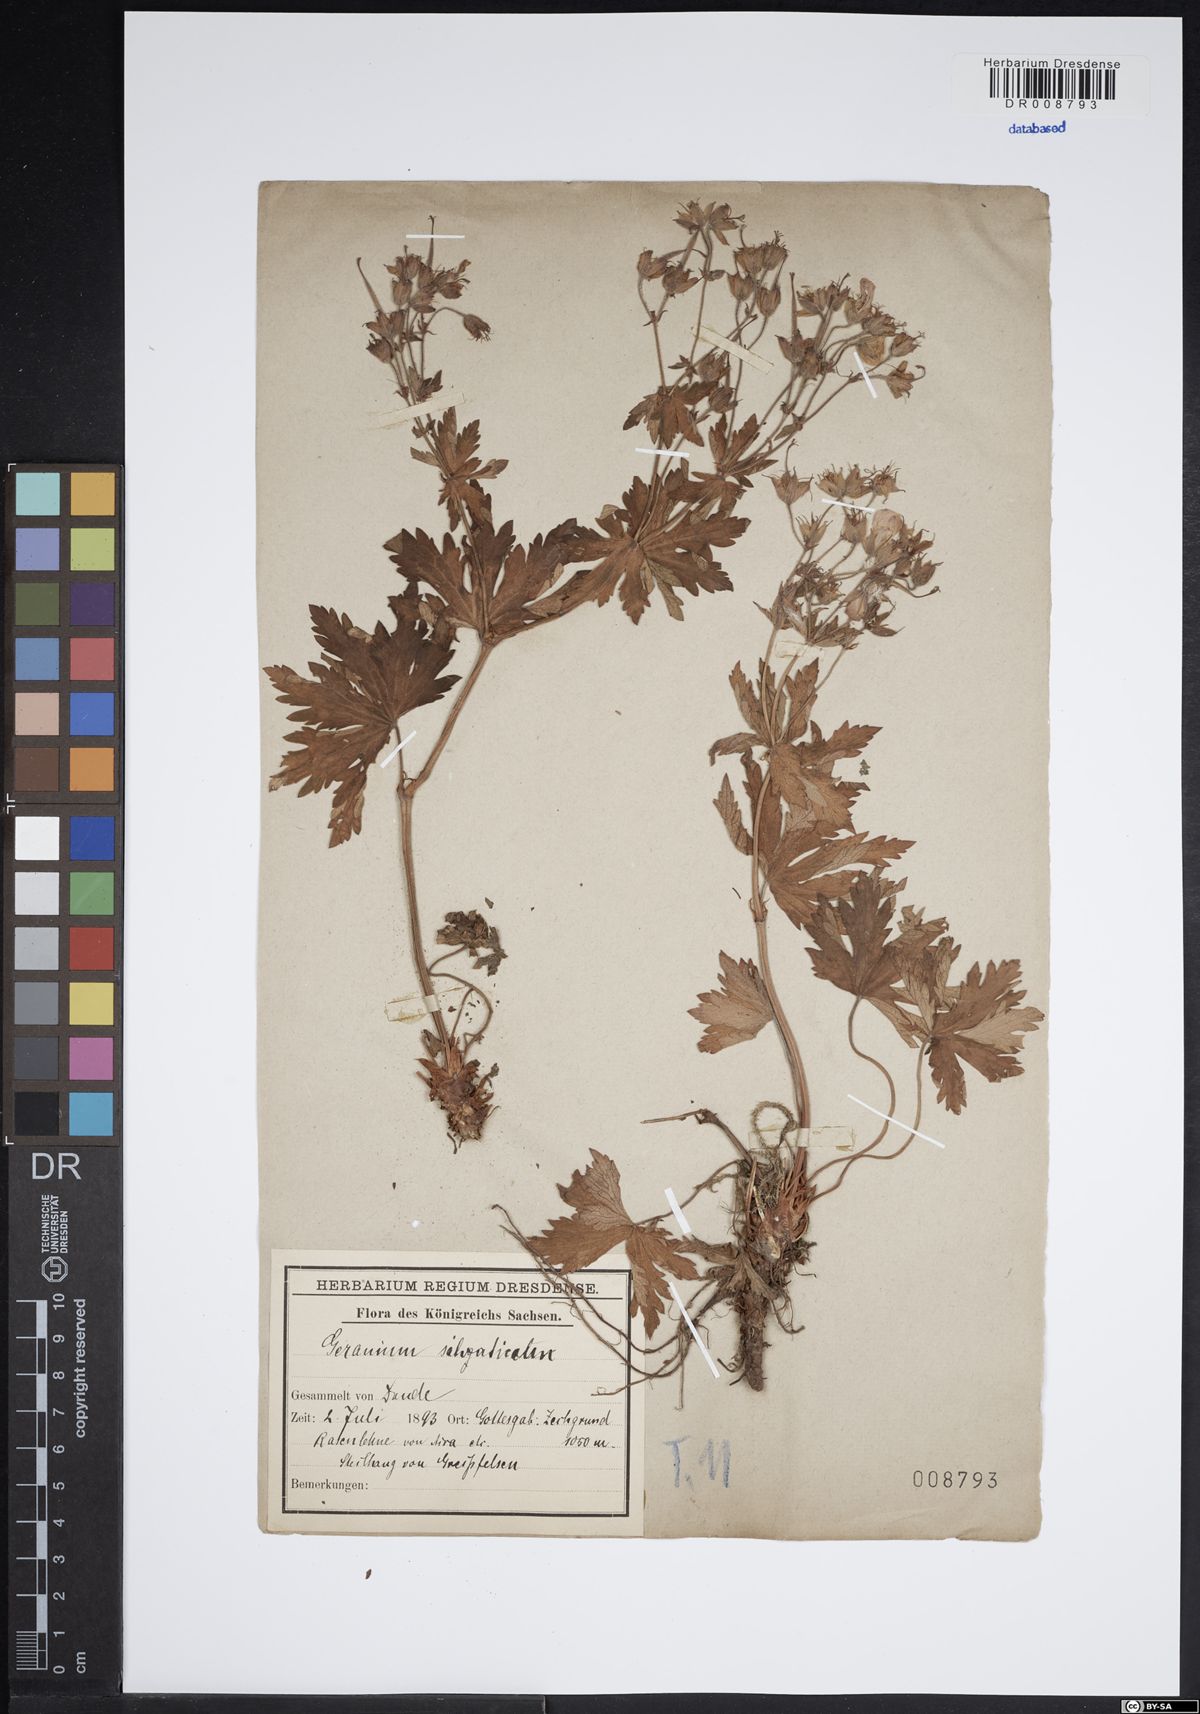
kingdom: Plantae
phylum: Tracheophyta
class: Magnoliopsida
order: Geraniales
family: Geraniaceae
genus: Geranium
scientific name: Geranium sylvaticum
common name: Wood crane's-bill
